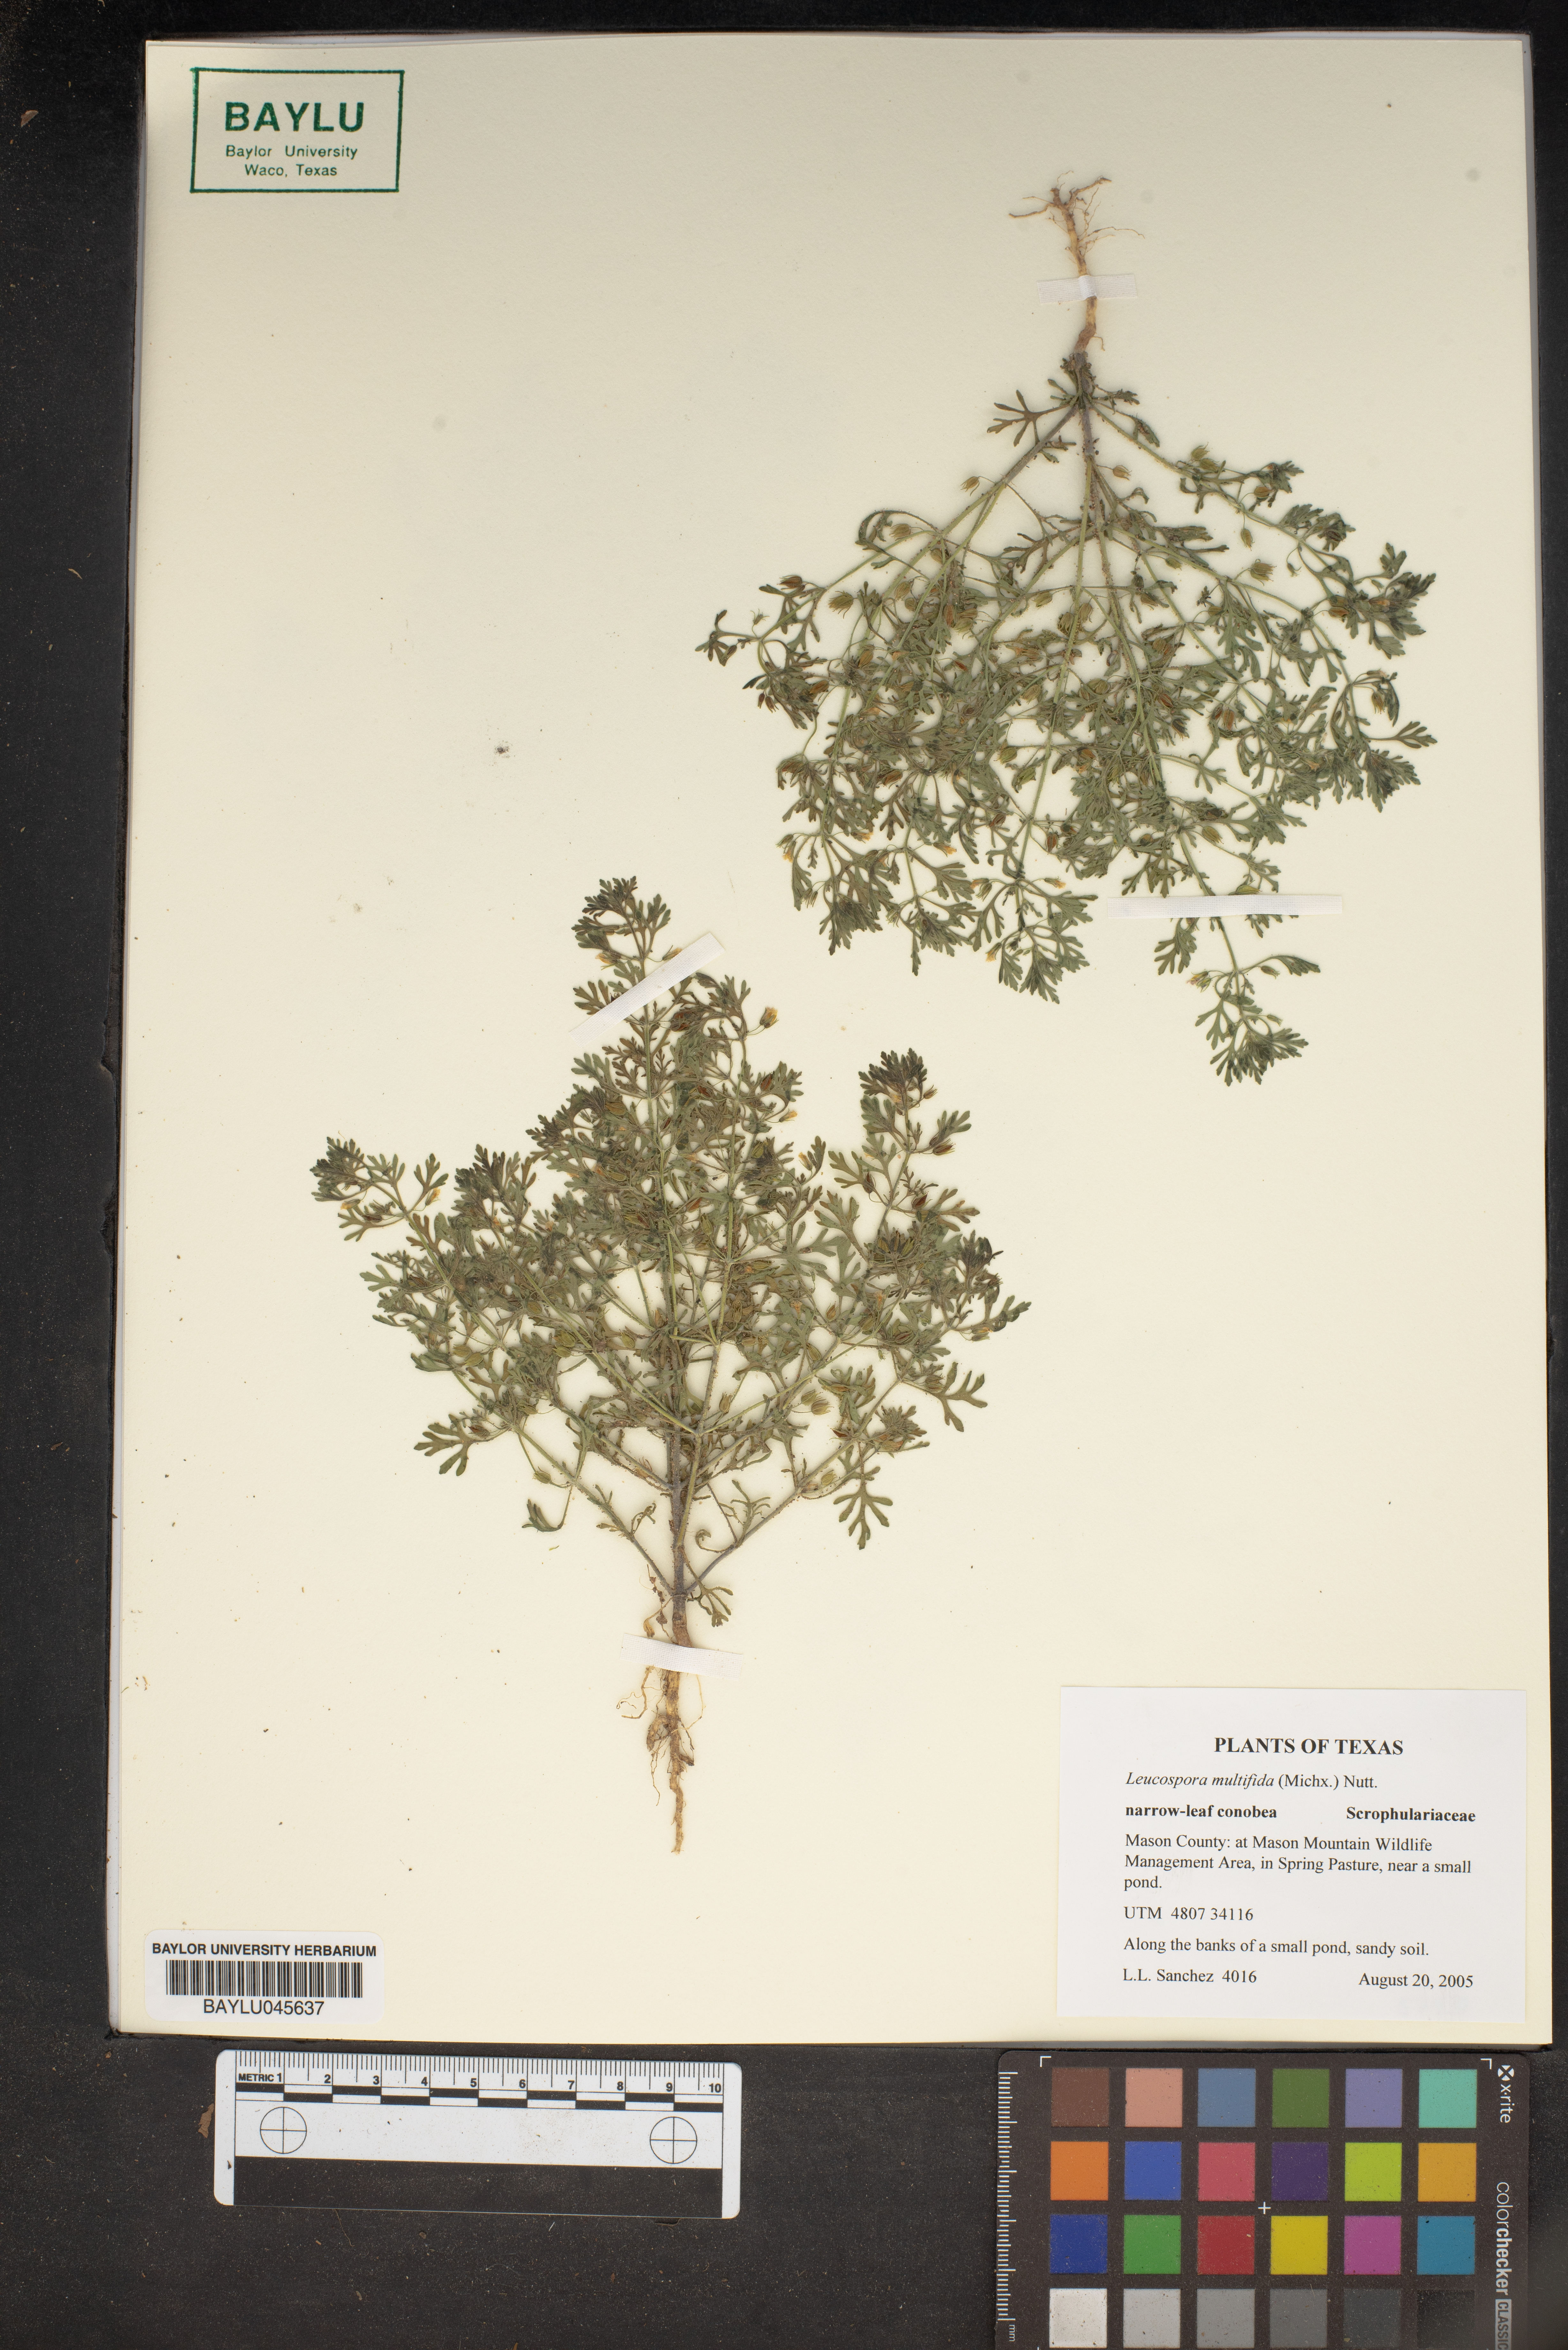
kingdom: Plantae
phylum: Tracheophyta
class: Magnoliopsida
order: Lamiales
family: Plantaginaceae
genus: Leucospora
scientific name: Leucospora multifida
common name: Narrow-leaf paleseed
